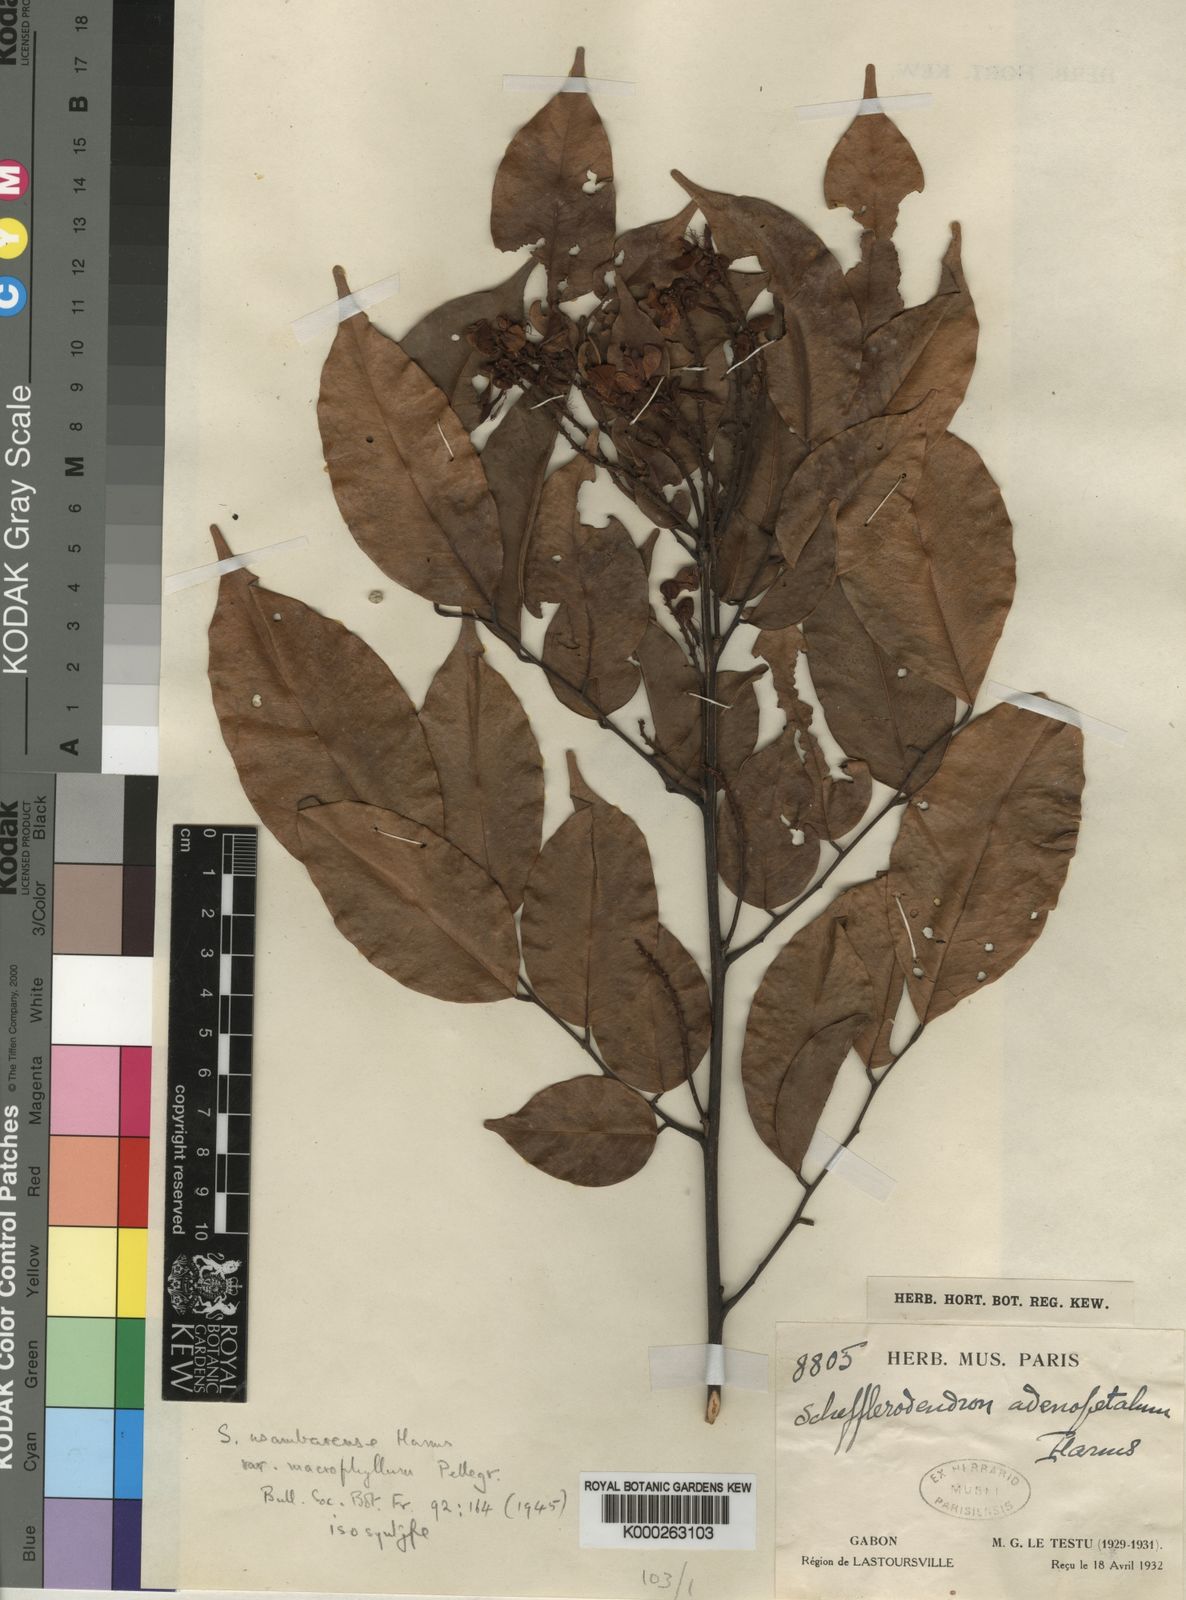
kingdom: Plantae
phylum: Tracheophyta
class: Magnoliopsida
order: Fabales
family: Fabaceae
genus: Schefflerodendron
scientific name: Schefflerodendron usambarense
